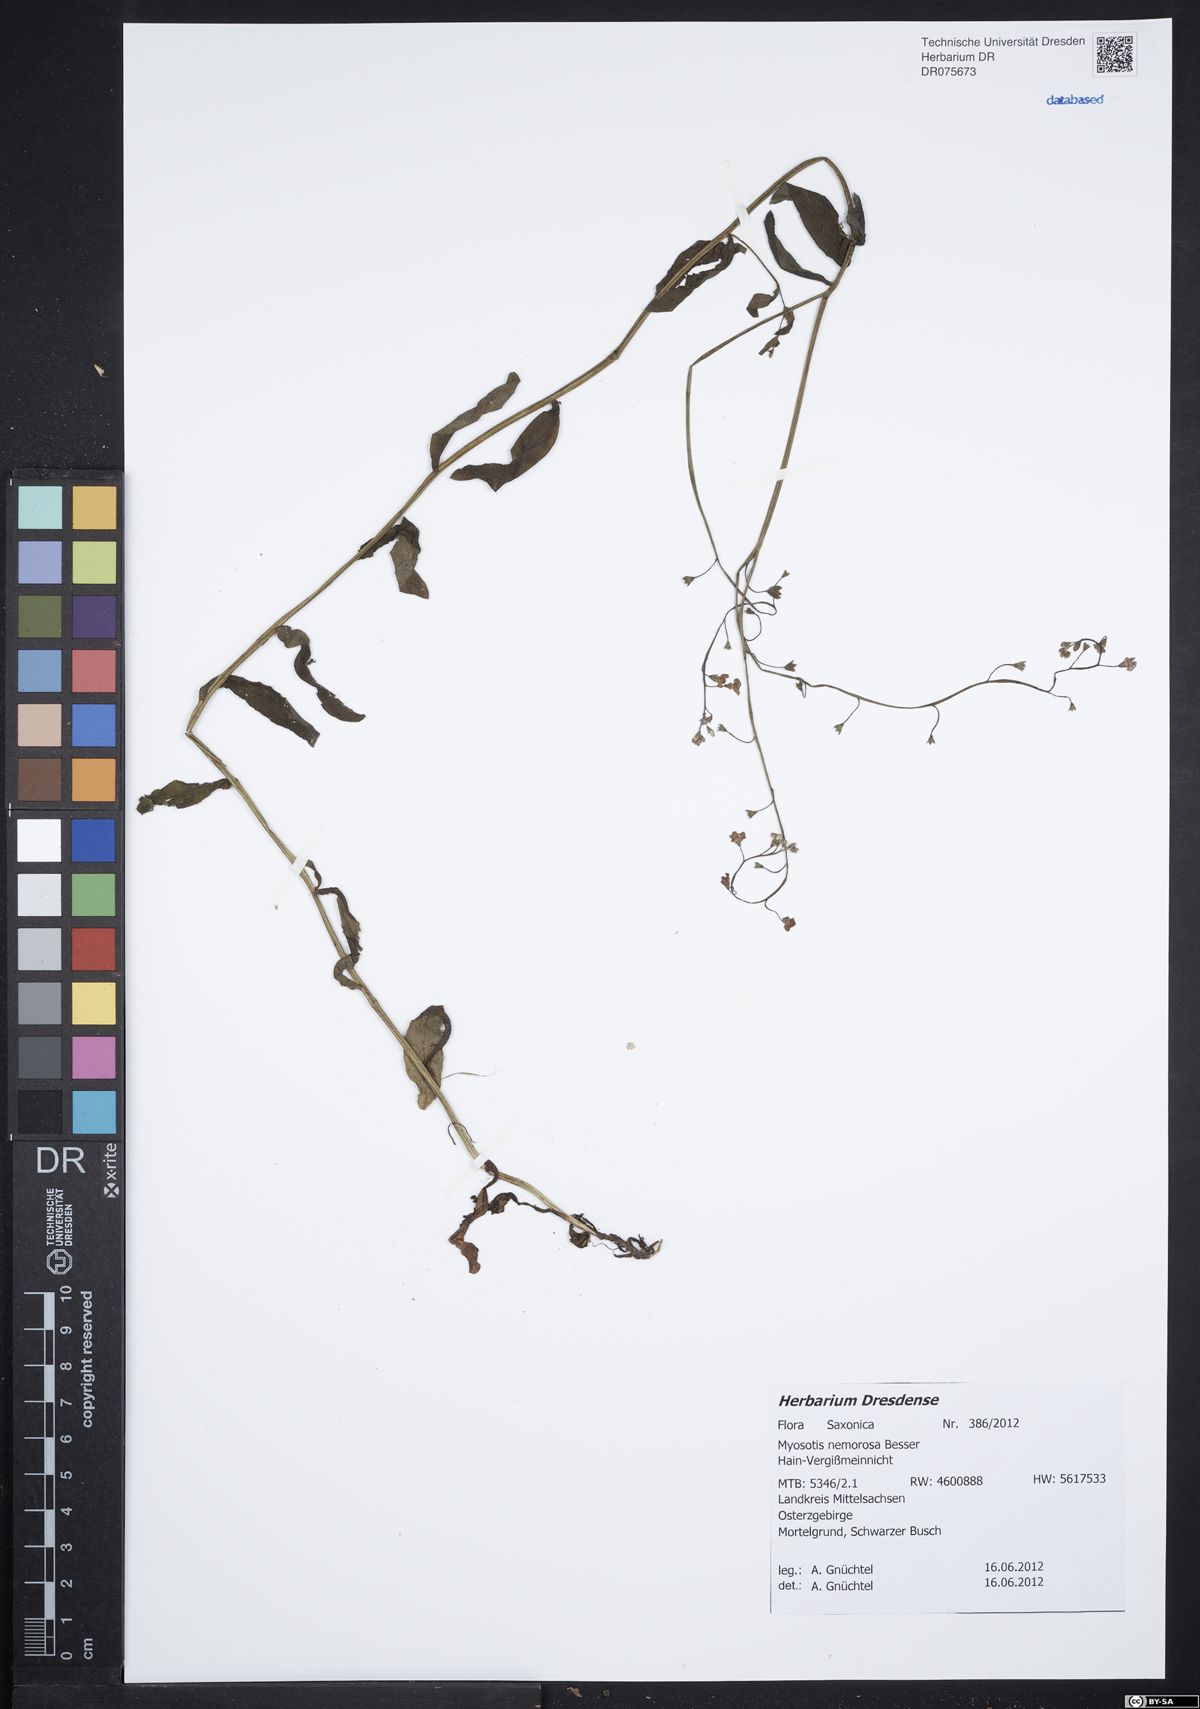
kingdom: Plantae
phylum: Tracheophyta
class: Magnoliopsida
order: Boraginales
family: Boraginaceae
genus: Myosotis
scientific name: Myosotis nemorosa
